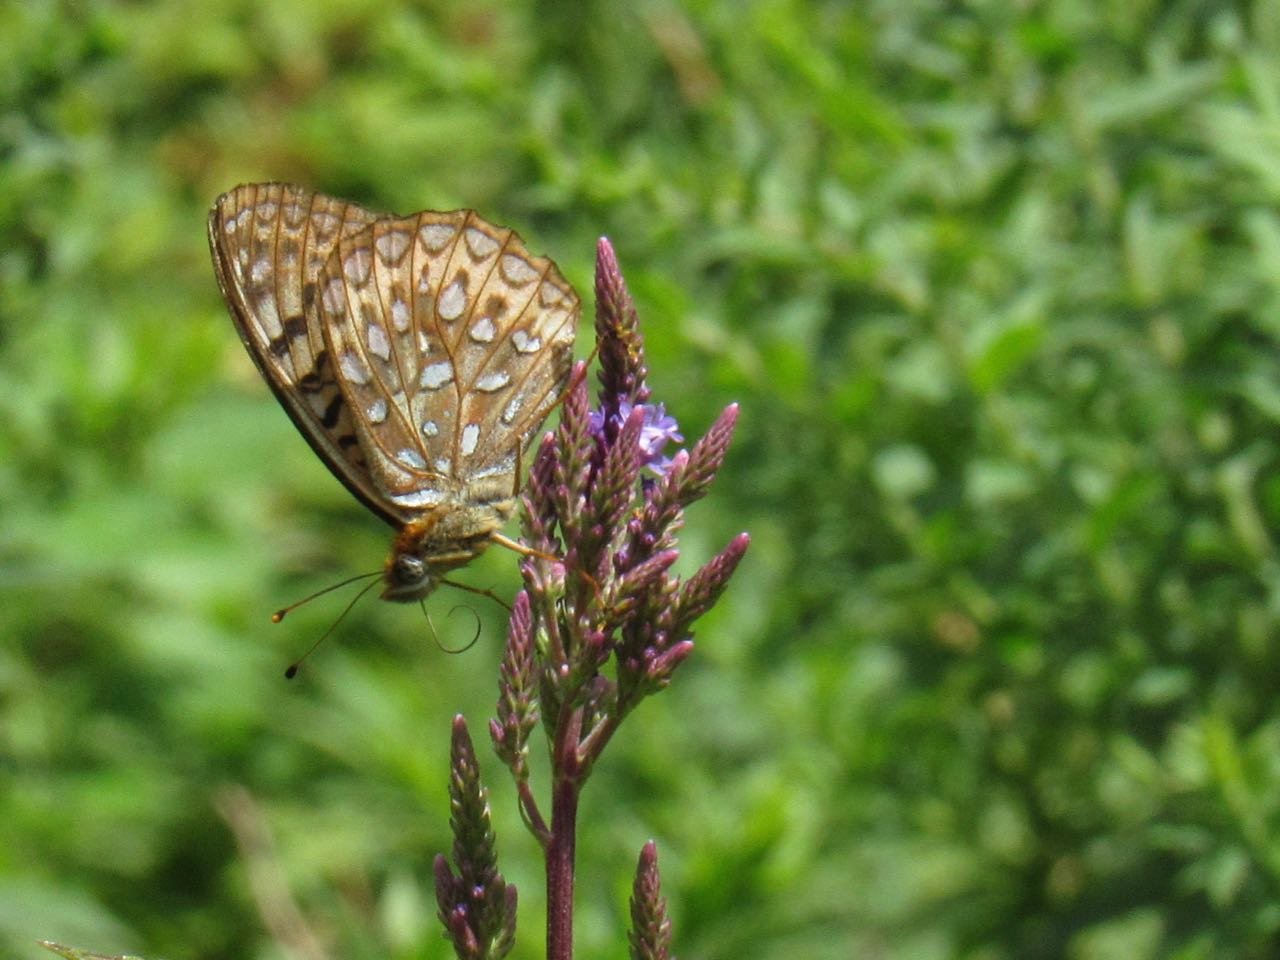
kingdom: Animalia
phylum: Arthropoda
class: Insecta
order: Lepidoptera
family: Nymphalidae
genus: Speyeria
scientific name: Speyeria atlantis
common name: Atlantis Fritillary
